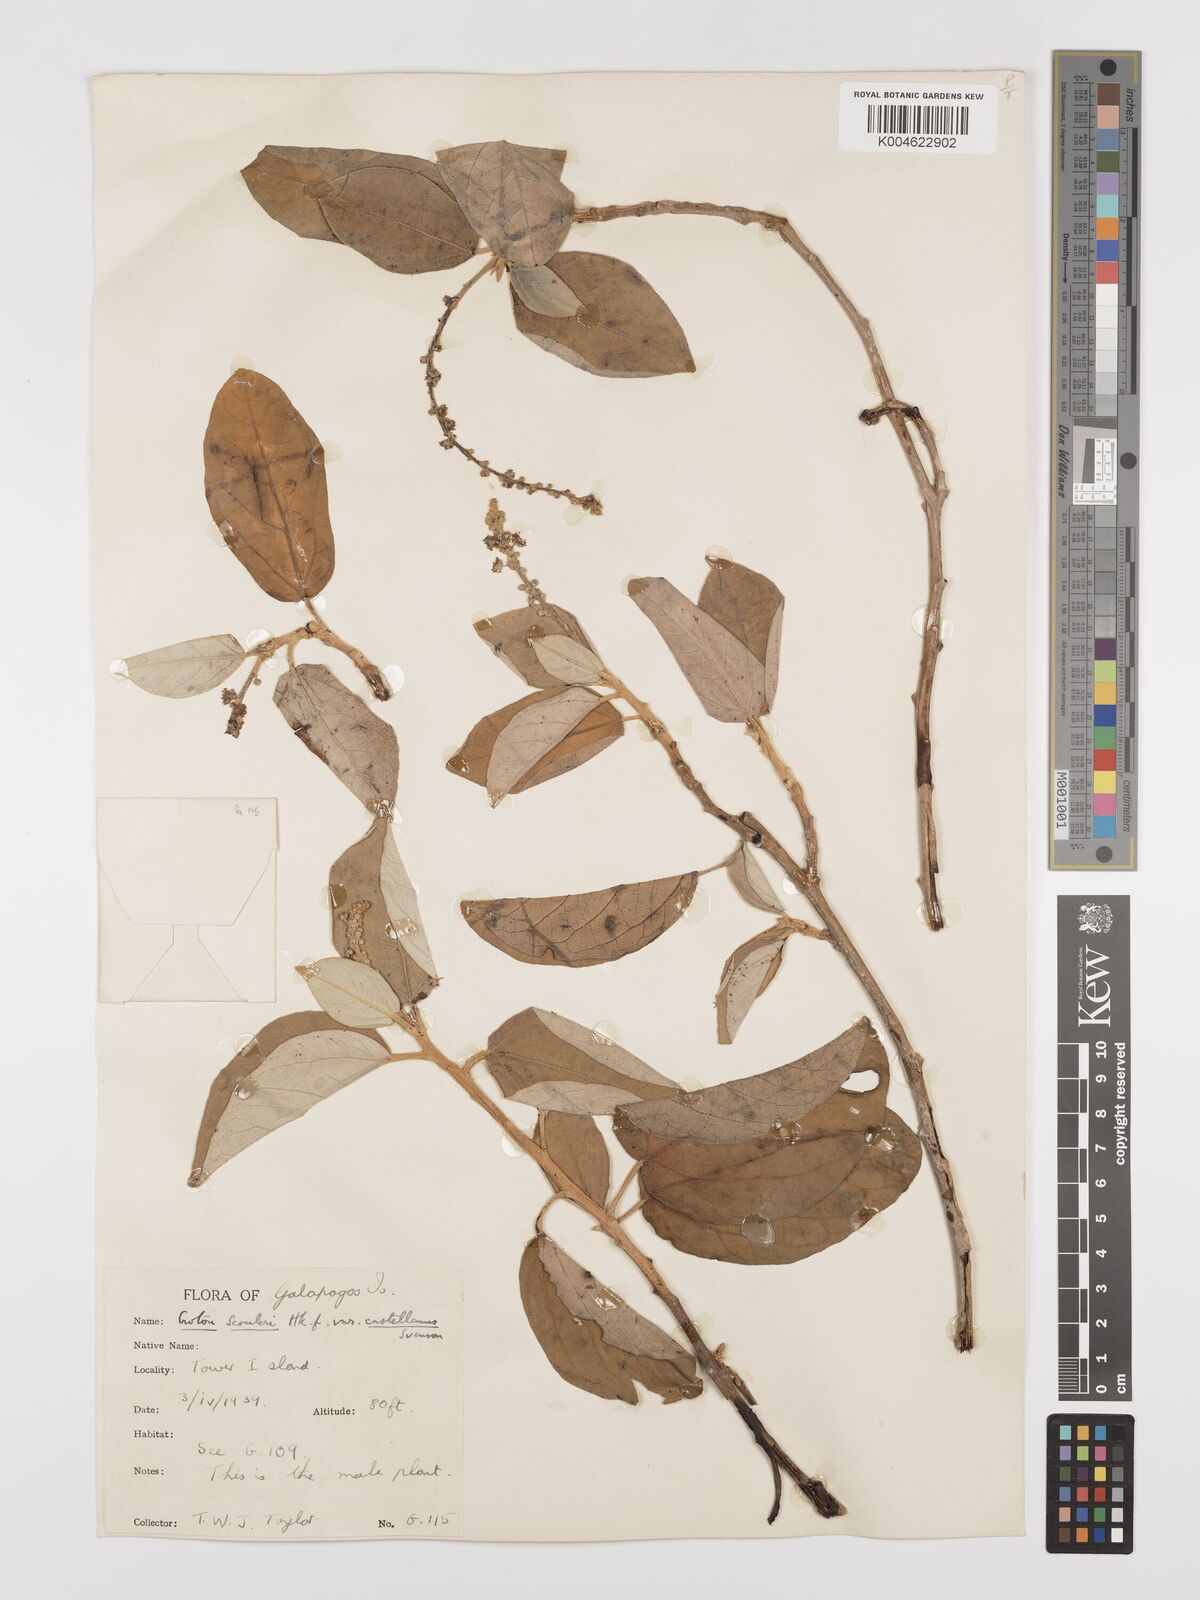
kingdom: Plantae
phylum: Tracheophyta
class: Magnoliopsida
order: Malpighiales
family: Euphorbiaceae
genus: Croton
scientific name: Croton scouleri
